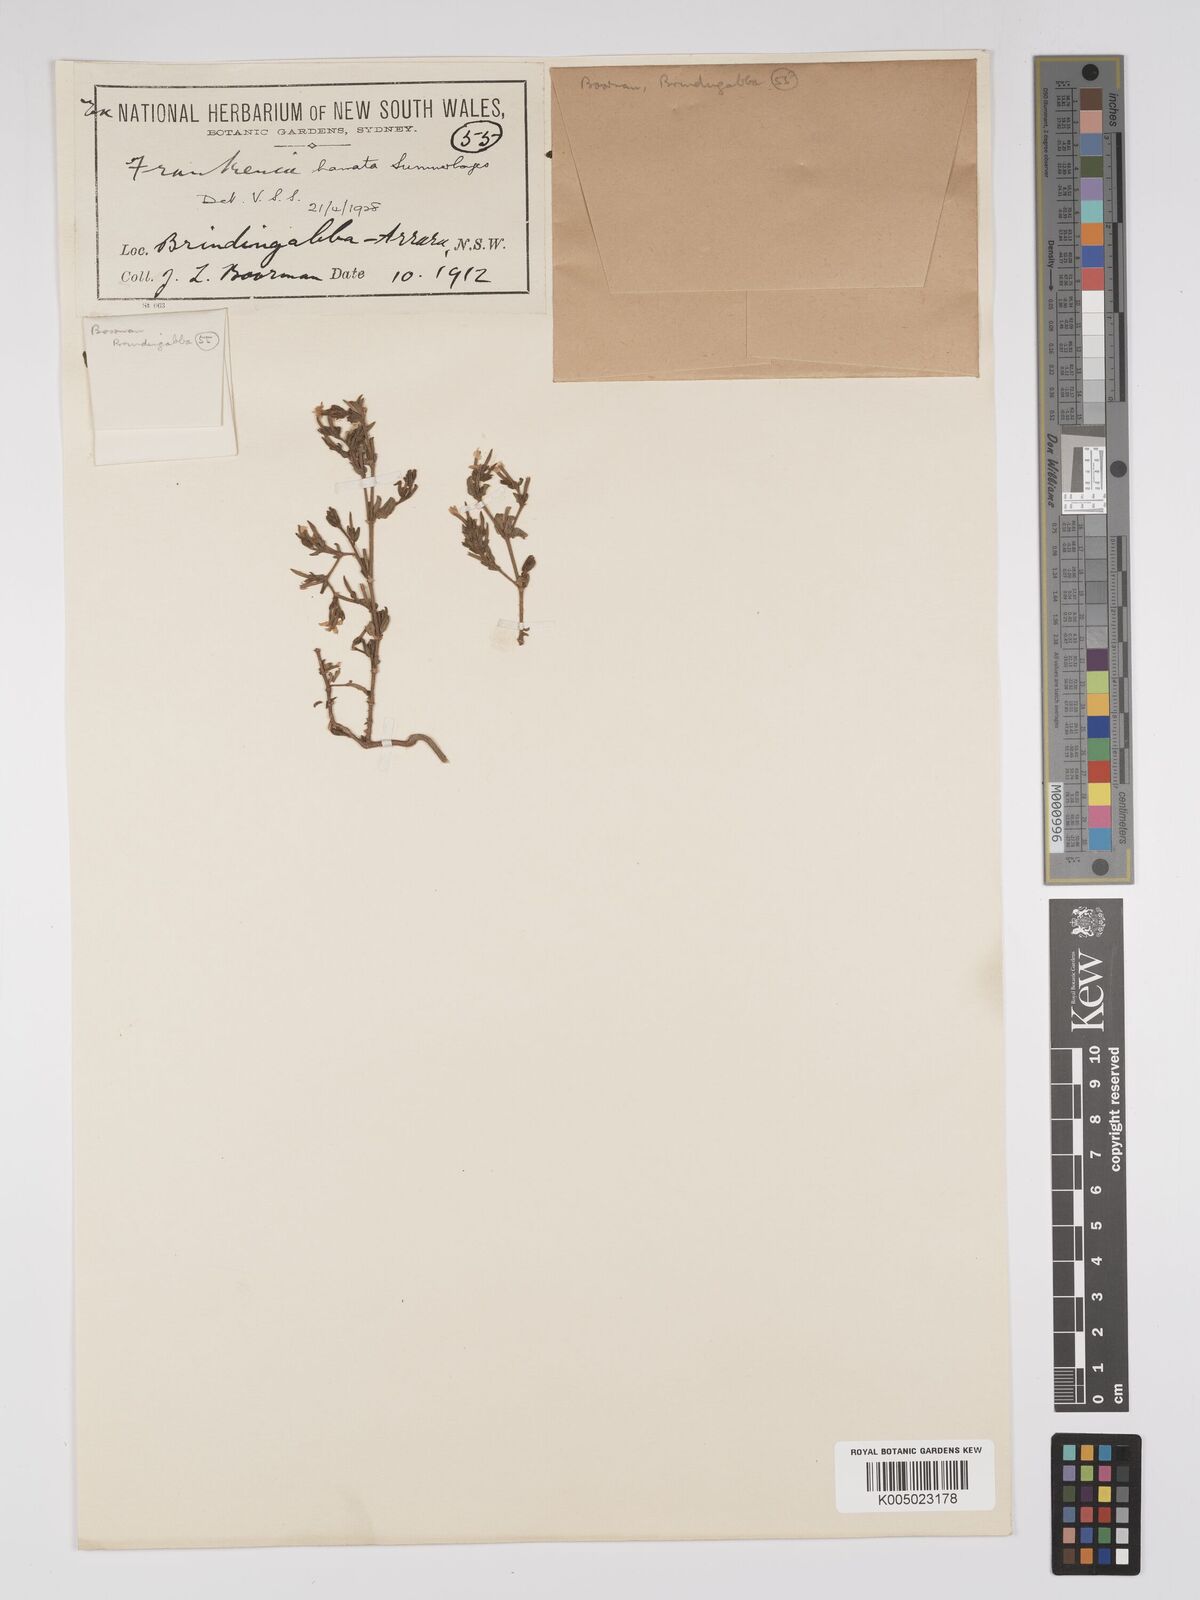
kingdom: Plantae
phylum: Tracheophyta
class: Magnoliopsida
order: Caryophyllales
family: Frankeniaceae
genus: Frankenia
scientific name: Frankenia uncinata
